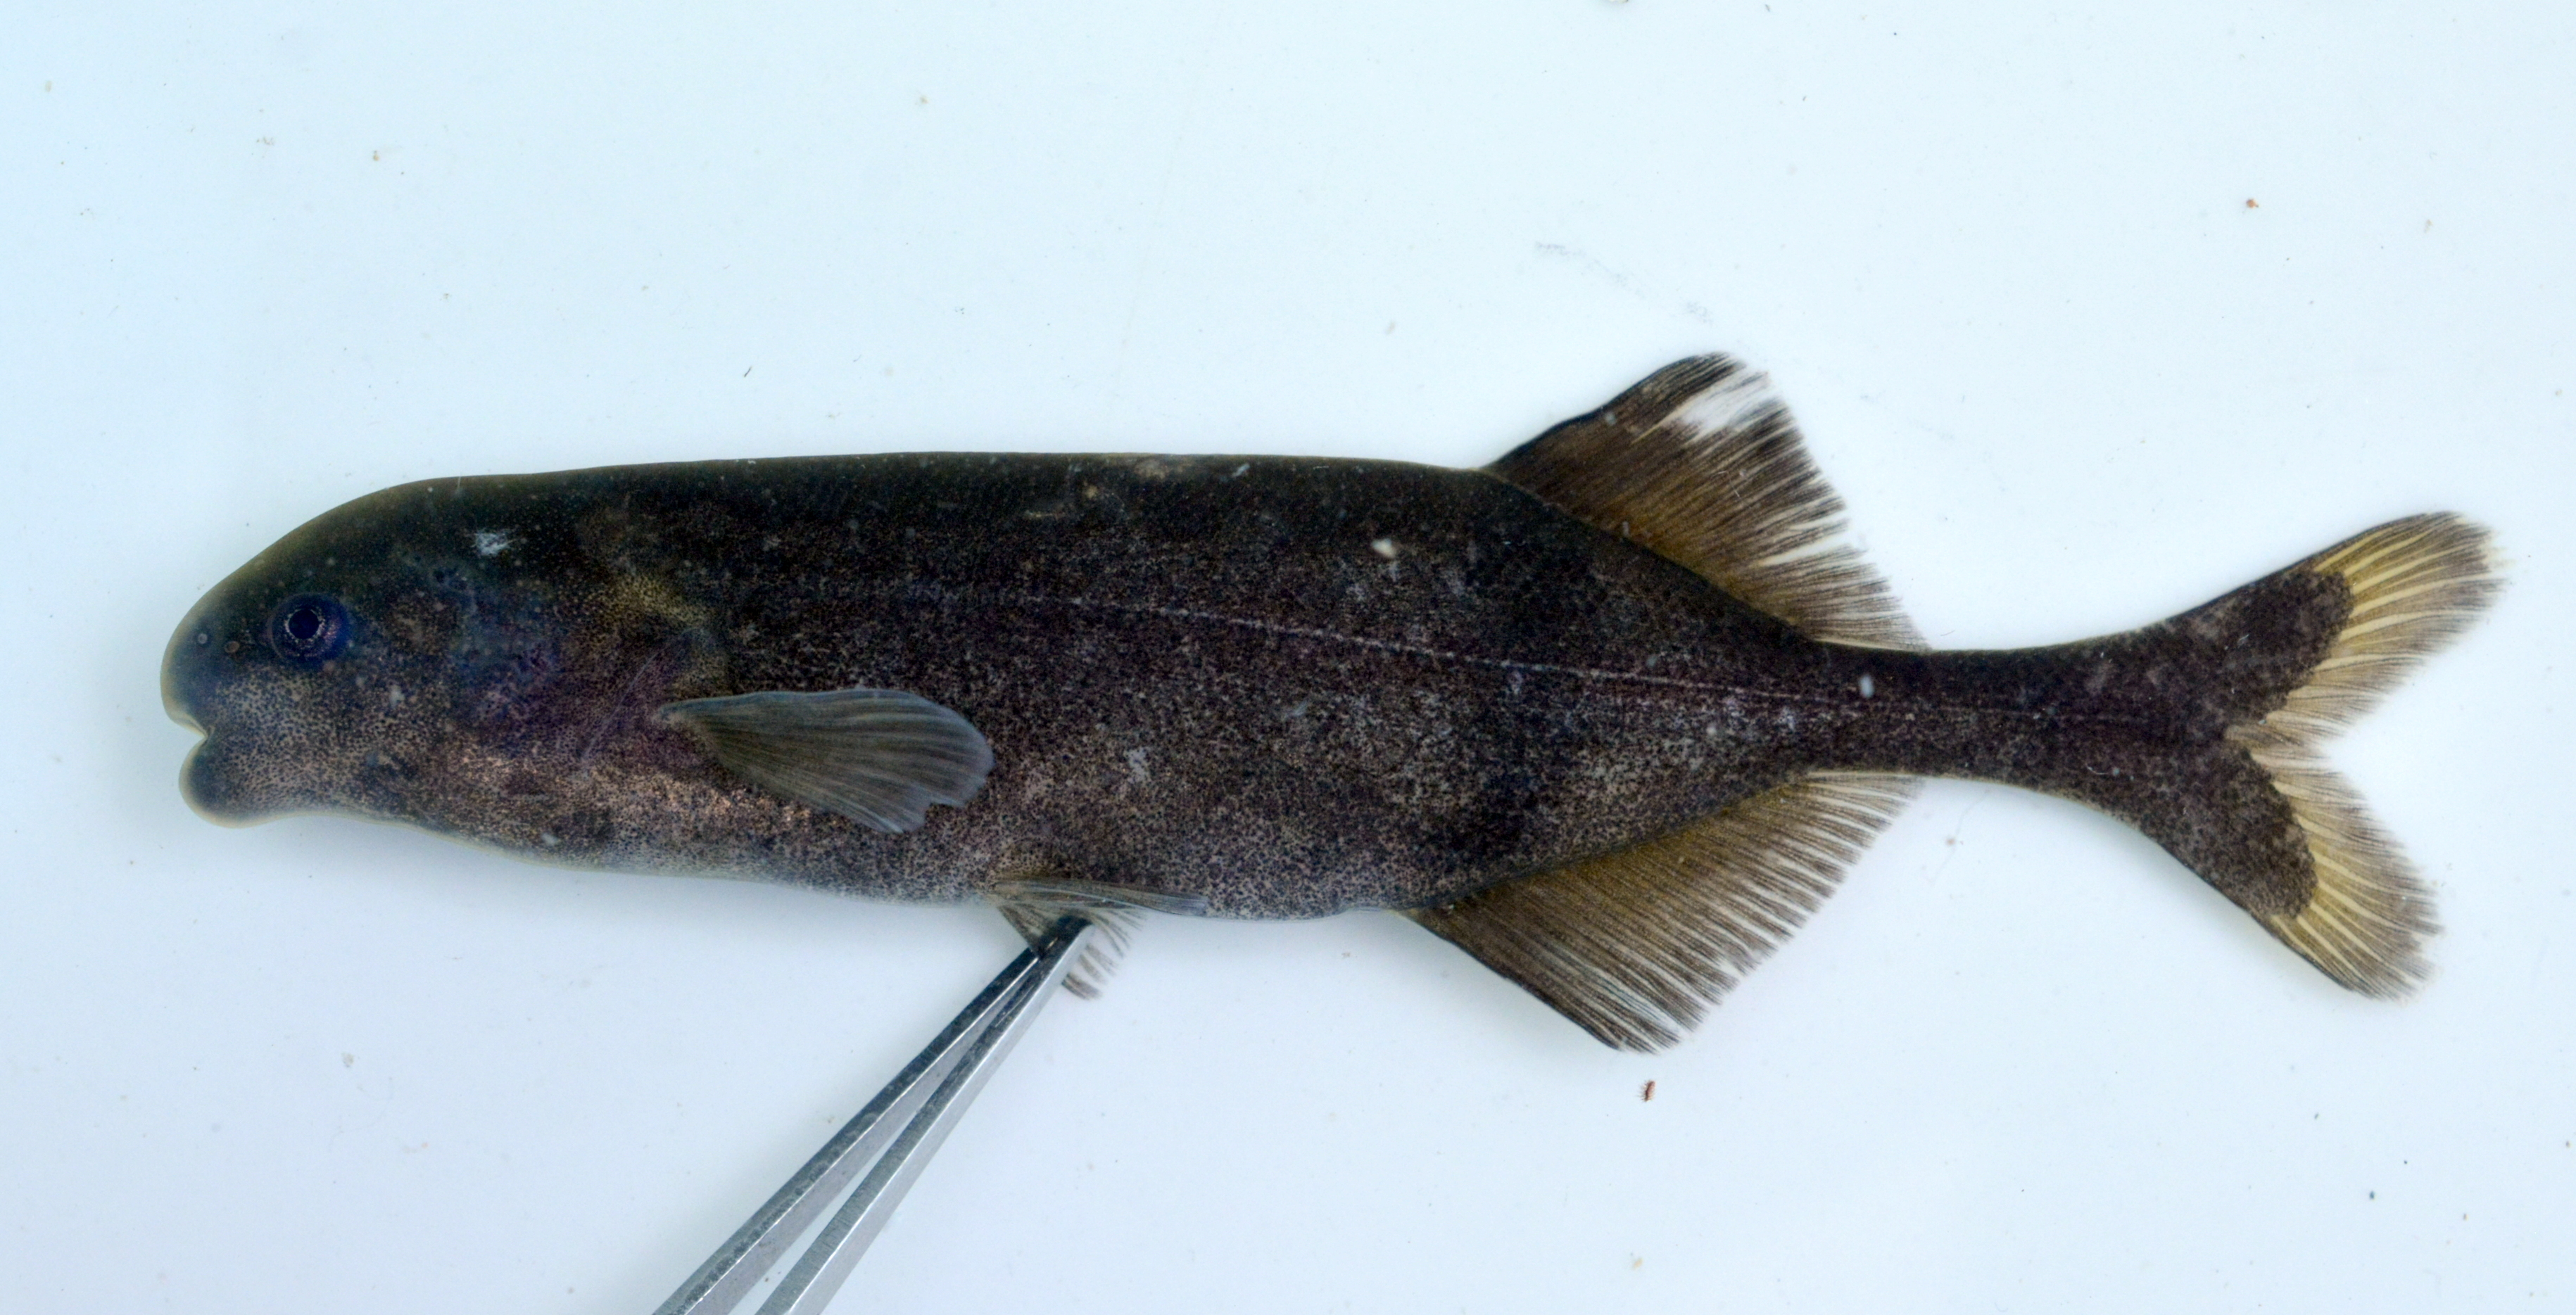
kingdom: Animalia
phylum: Chordata
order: Osteoglossiformes
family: Mormyridae
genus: Hippopotamyrus
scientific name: Hippopotamyrus ansorgii
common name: Slender stonebasher
